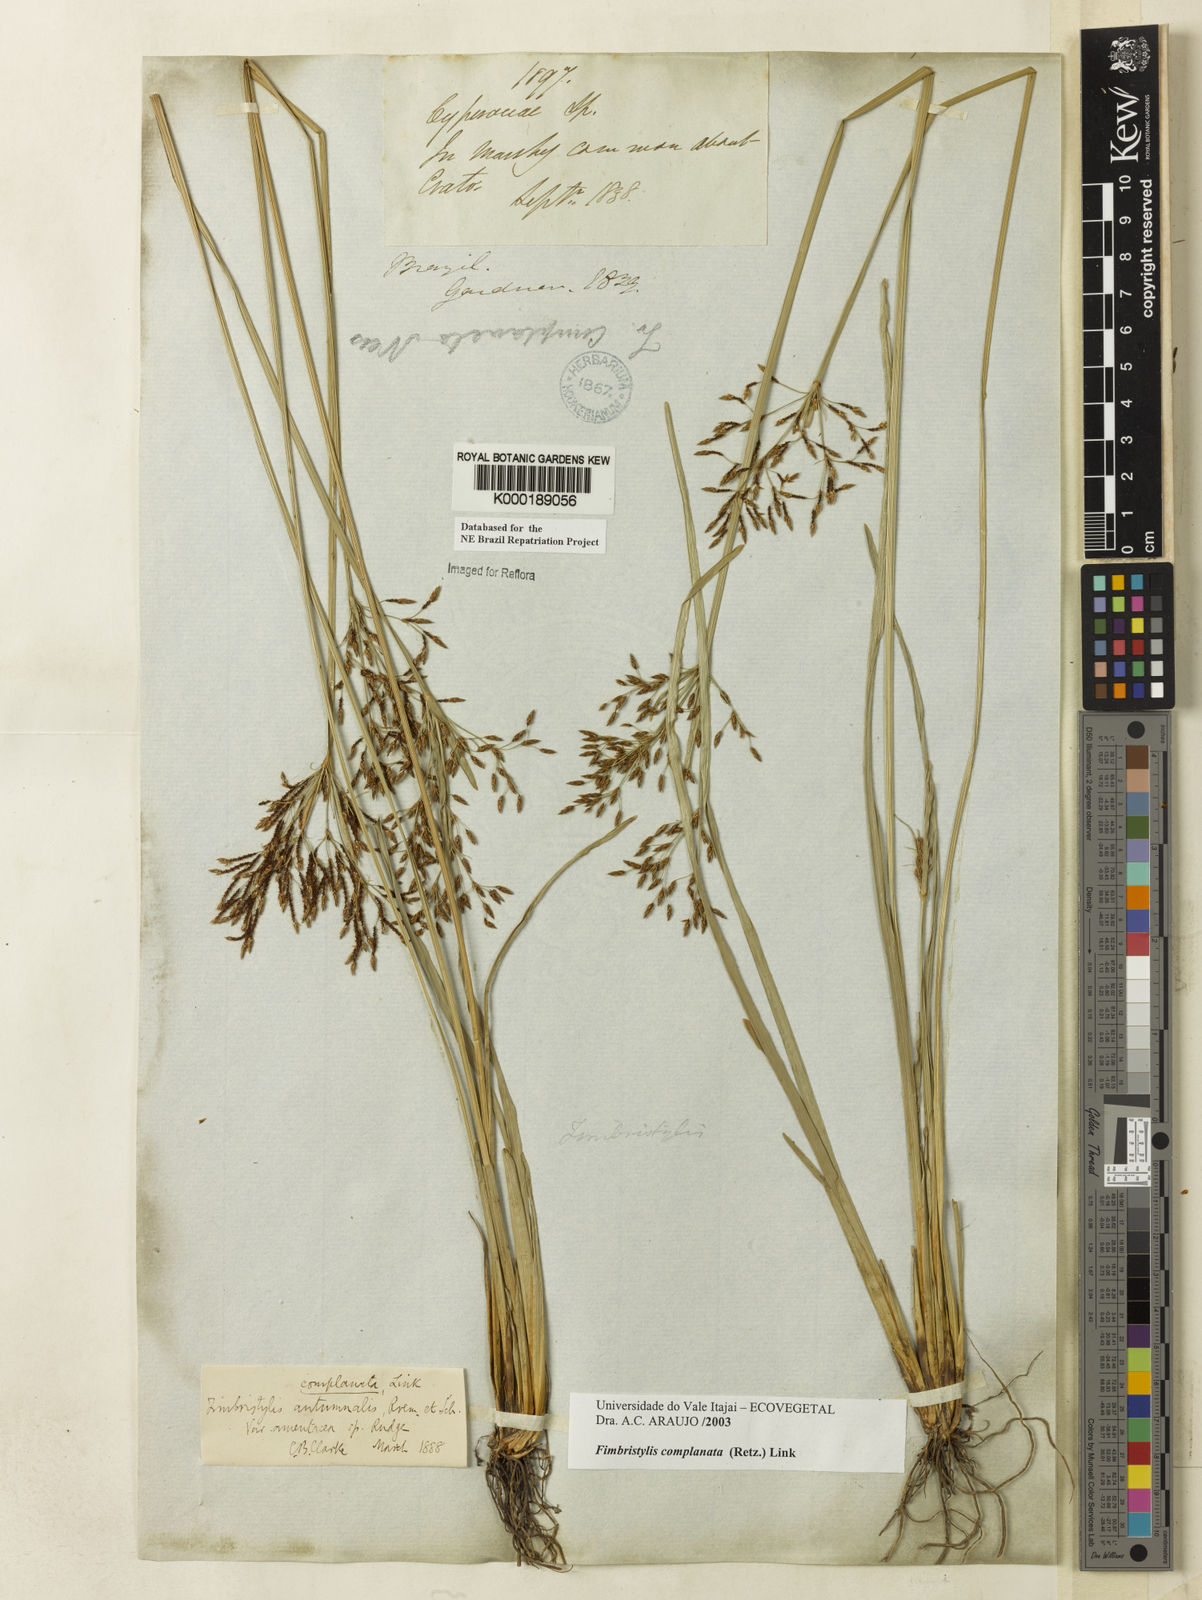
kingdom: Plantae
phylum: Tracheophyta
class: Liliopsida
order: Poales
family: Cyperaceae
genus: Fimbristylis
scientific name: Fimbristylis complanata
